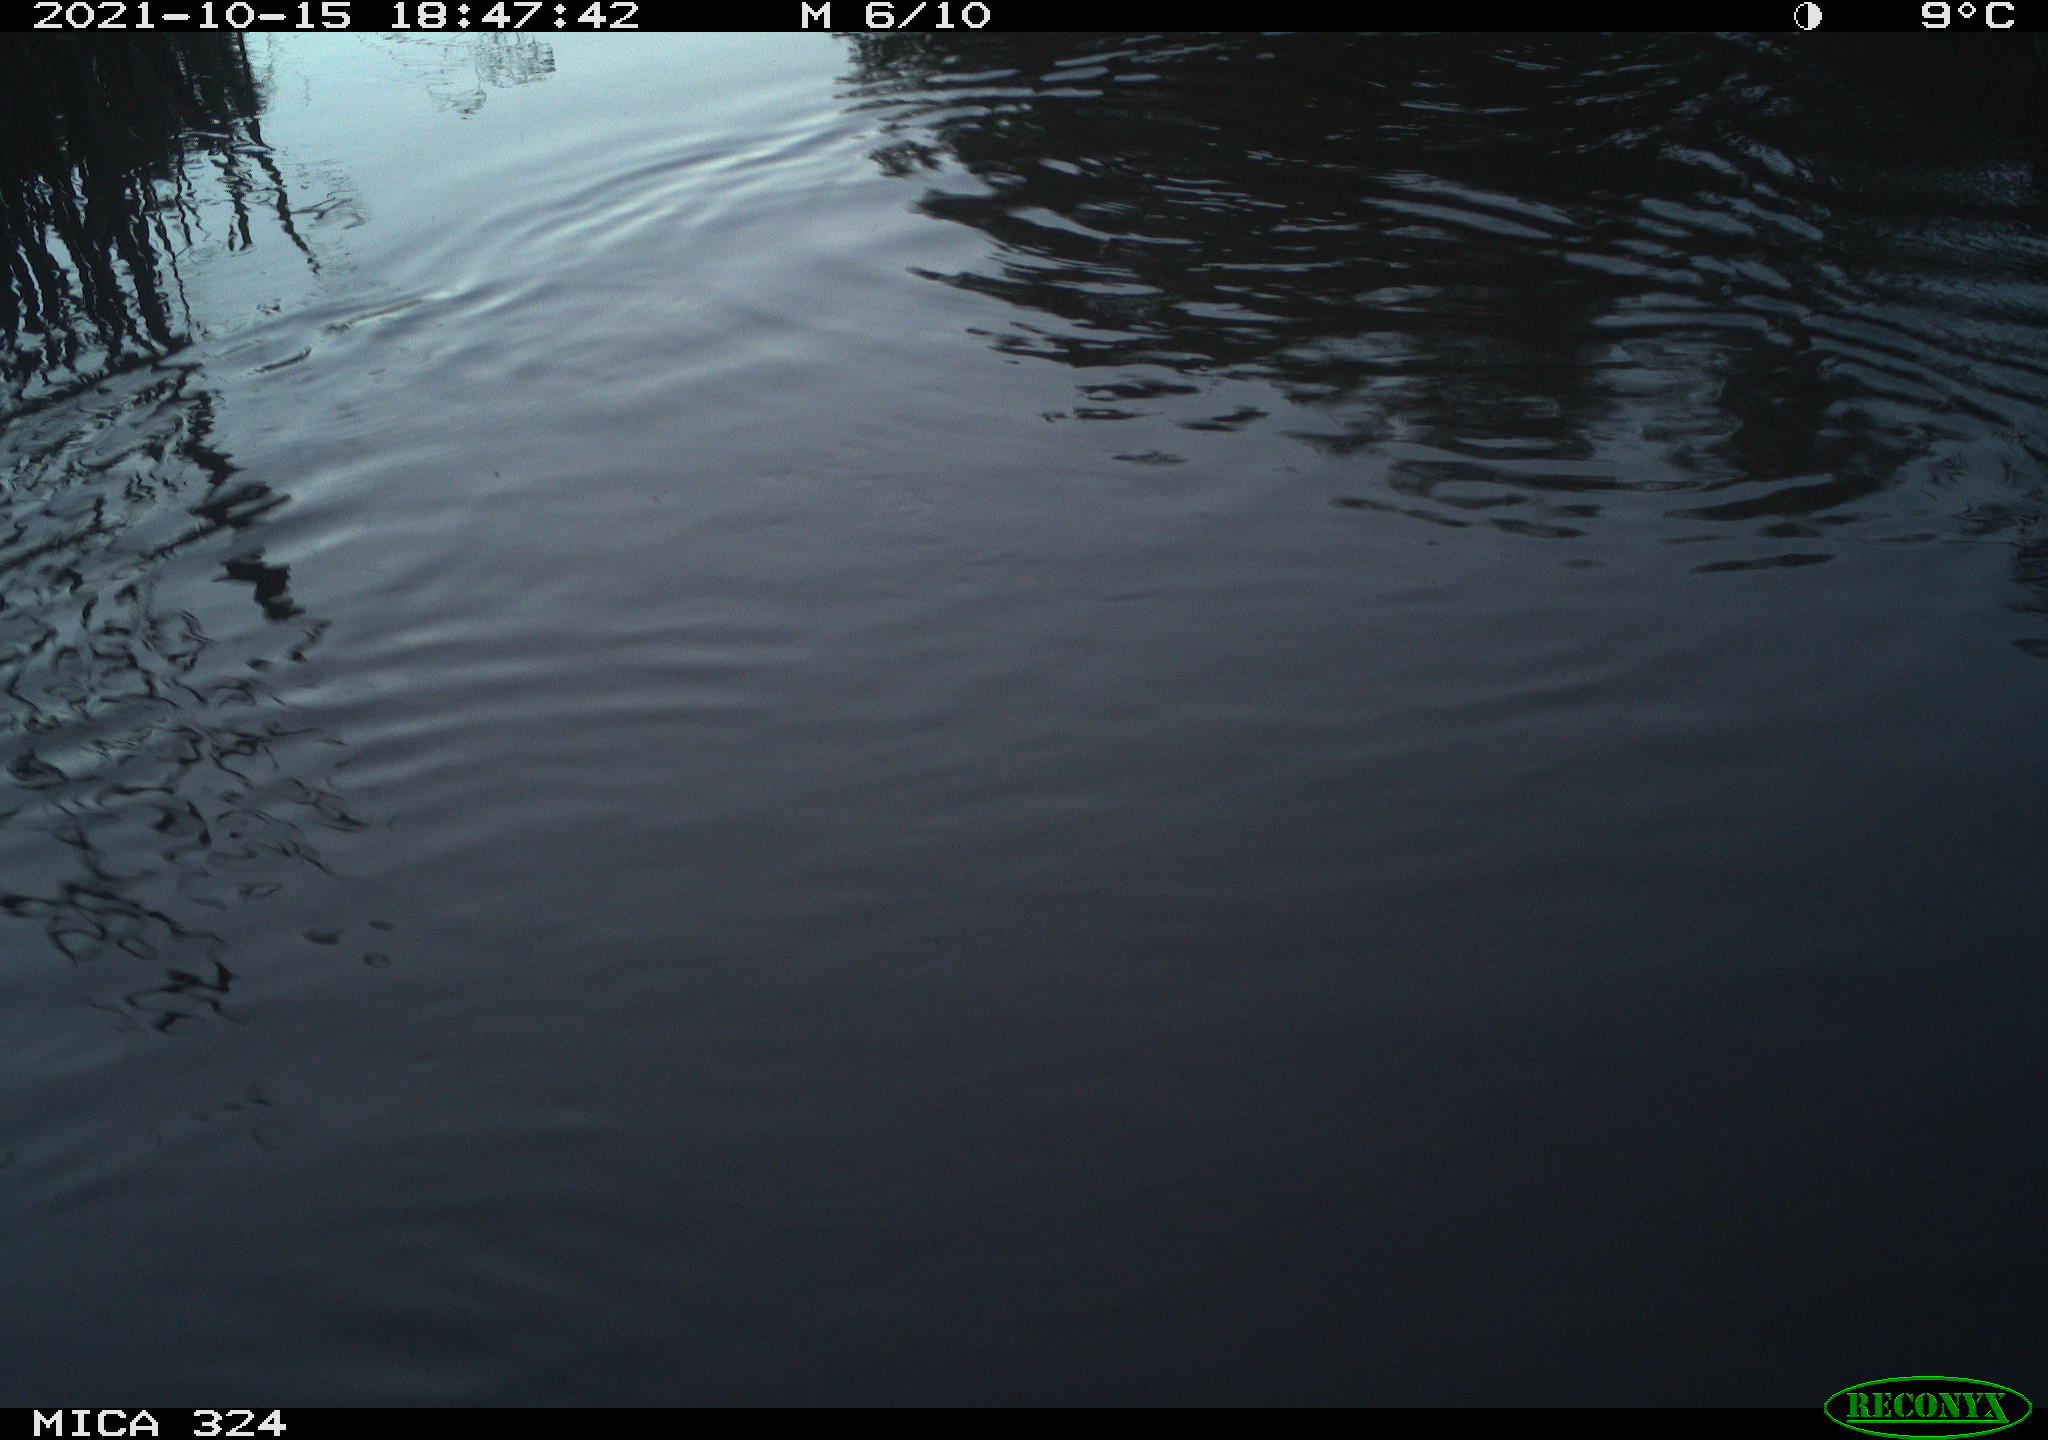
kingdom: Animalia
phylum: Chordata
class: Mammalia
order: Rodentia
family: Cricetidae
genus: Ondatra
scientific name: Ondatra zibethicus
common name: Muskrat
